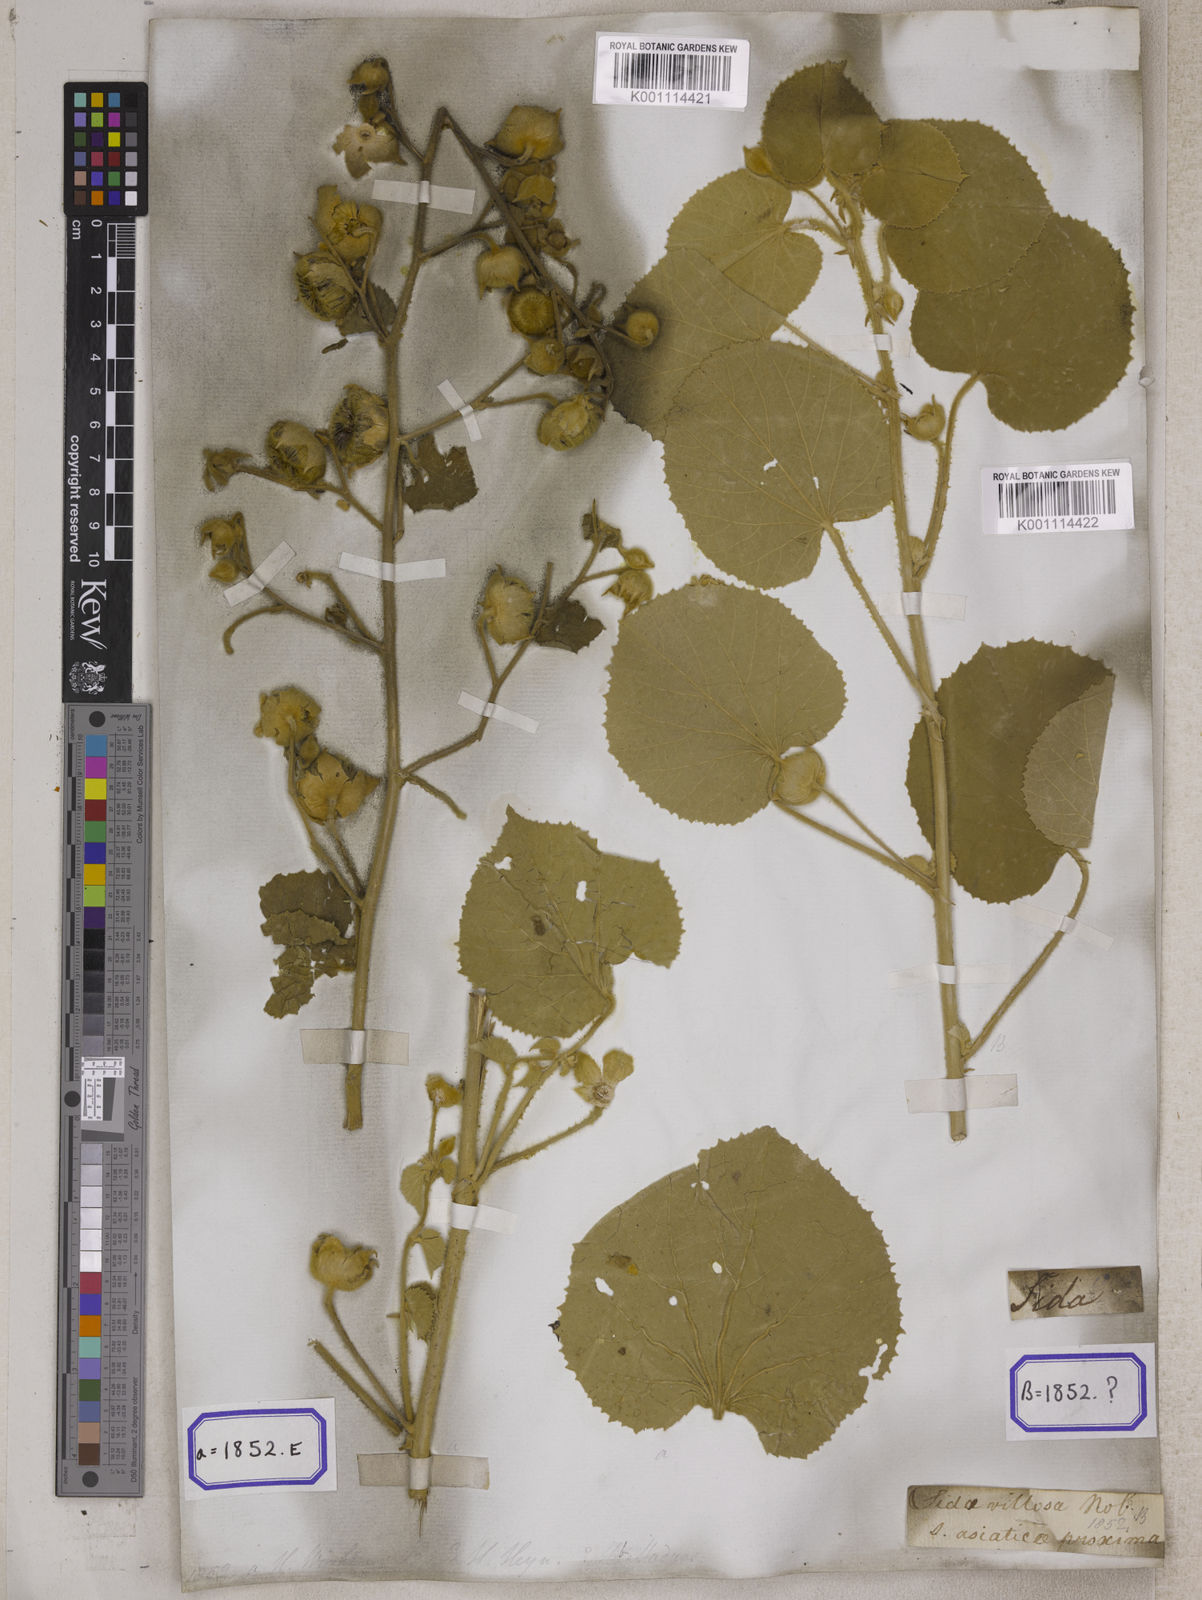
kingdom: Plantae
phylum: Tracheophyta
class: Magnoliopsida
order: Malvales
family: Malvaceae
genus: Abutilon
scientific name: Abutilon pannosum
